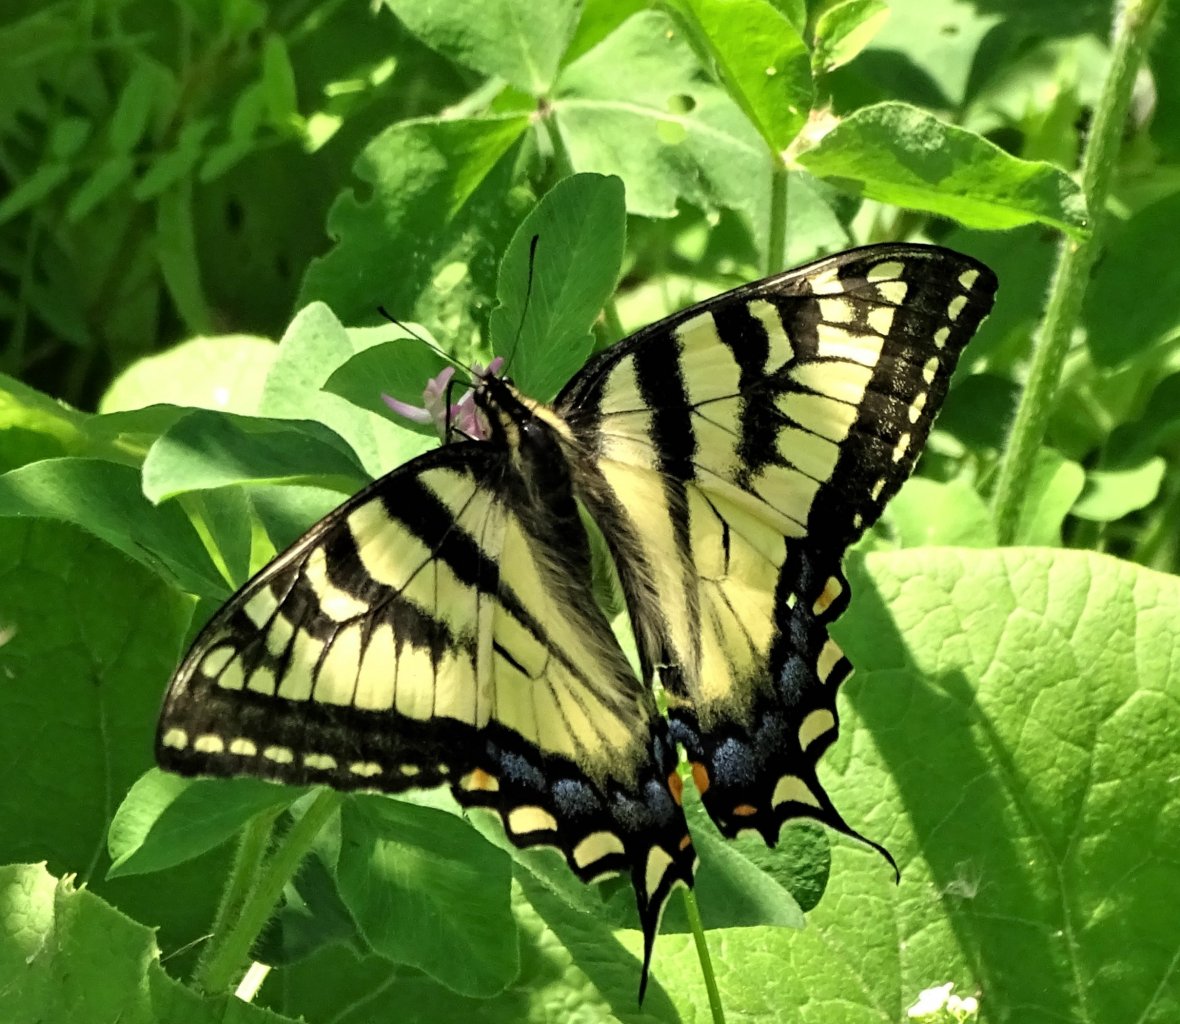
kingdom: Animalia
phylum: Arthropoda
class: Insecta
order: Lepidoptera
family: Papilionidae
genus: Pterourus
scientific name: Pterourus canadensis
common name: Canadian Tiger Swallowtail
